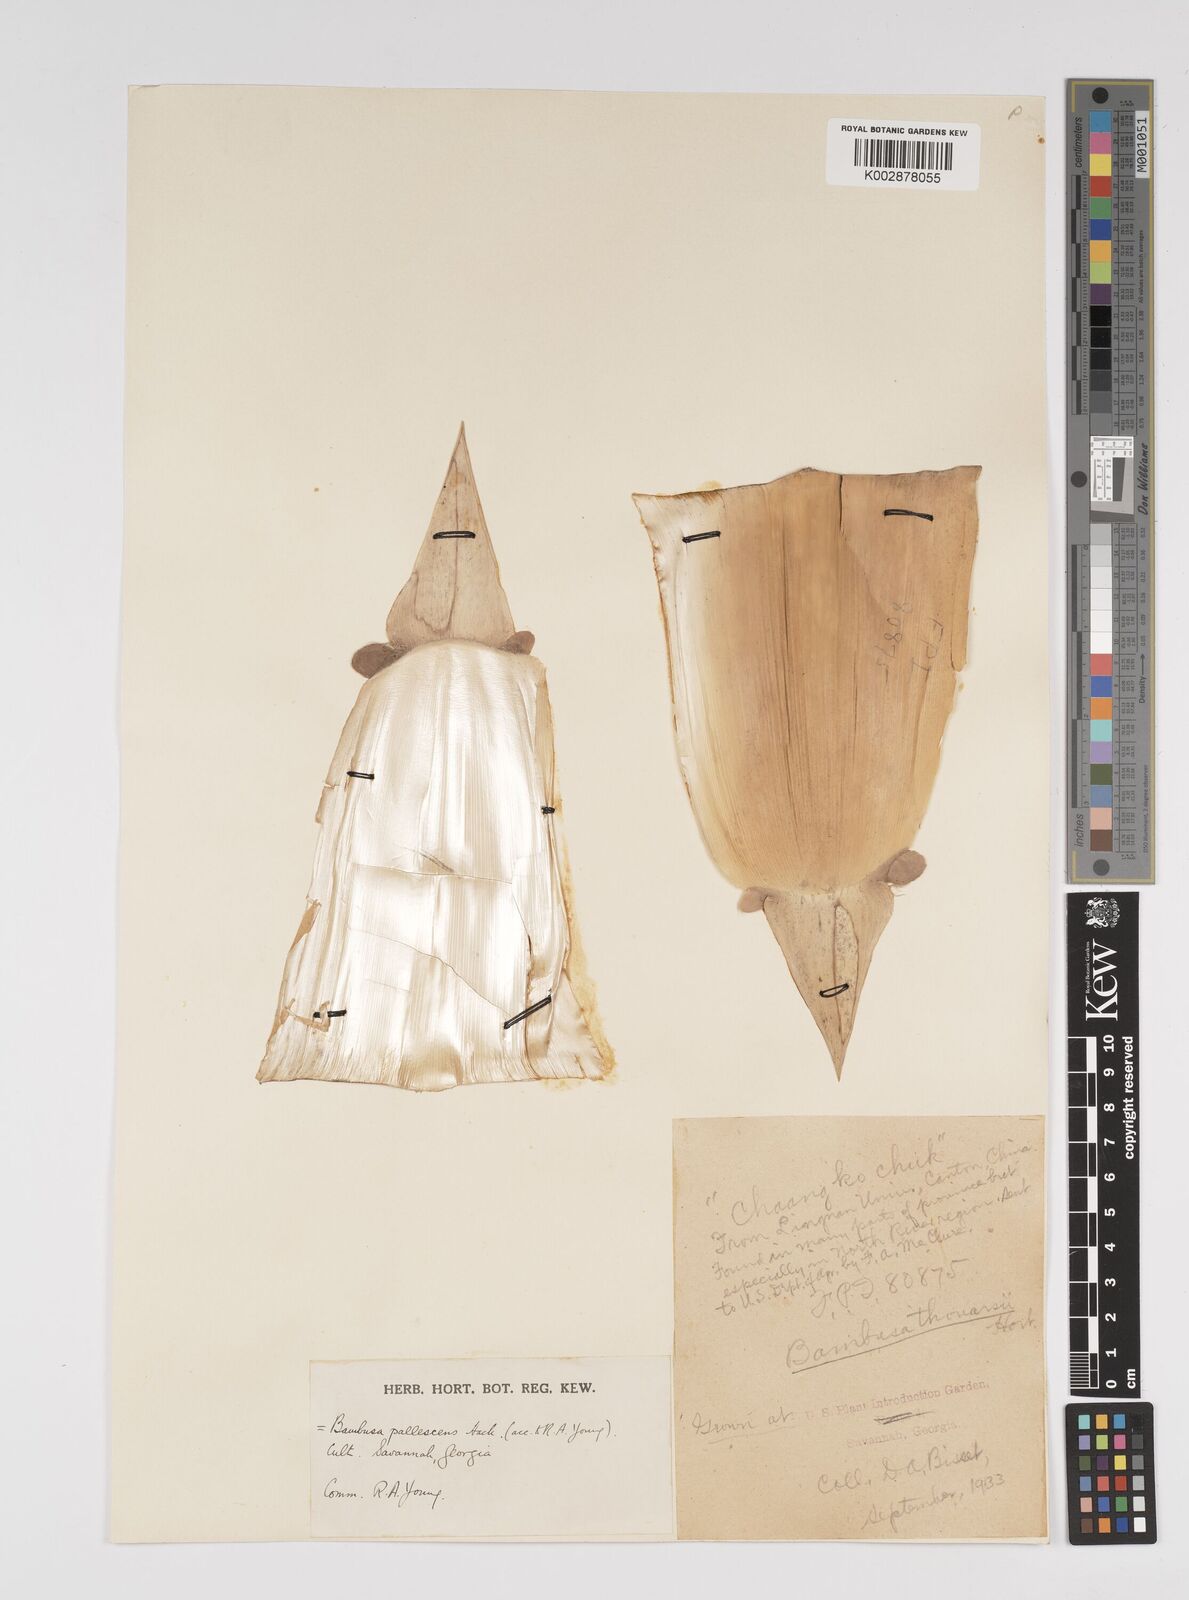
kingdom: Plantae
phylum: Tracheophyta
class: Liliopsida
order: Poales
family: Poaceae
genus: Bambusa
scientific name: Bambusa tuldoides
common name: Verdant bamboo
